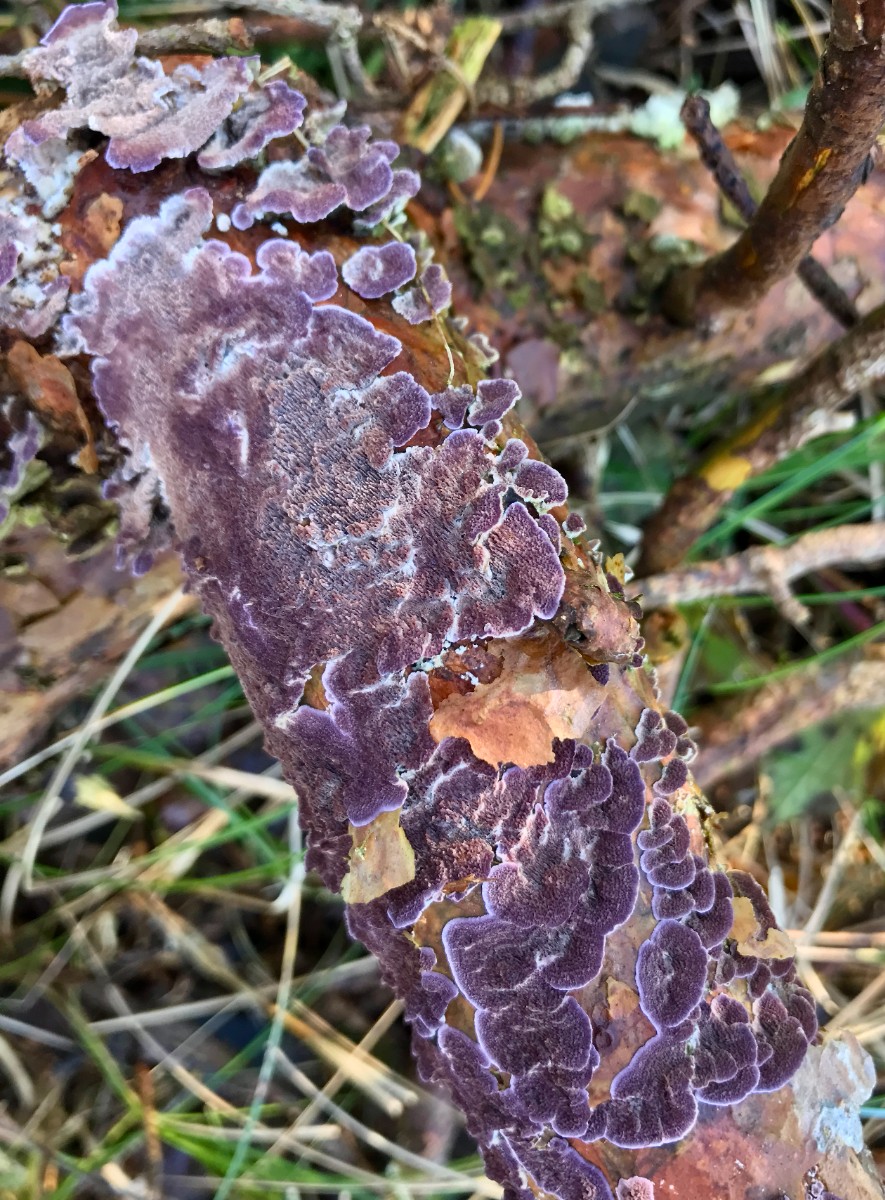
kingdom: Fungi
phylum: Basidiomycota
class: Agaricomycetes
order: Hymenochaetales
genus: Trichaptum
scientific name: Trichaptum abietinum
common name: almindelig violporesvamp
